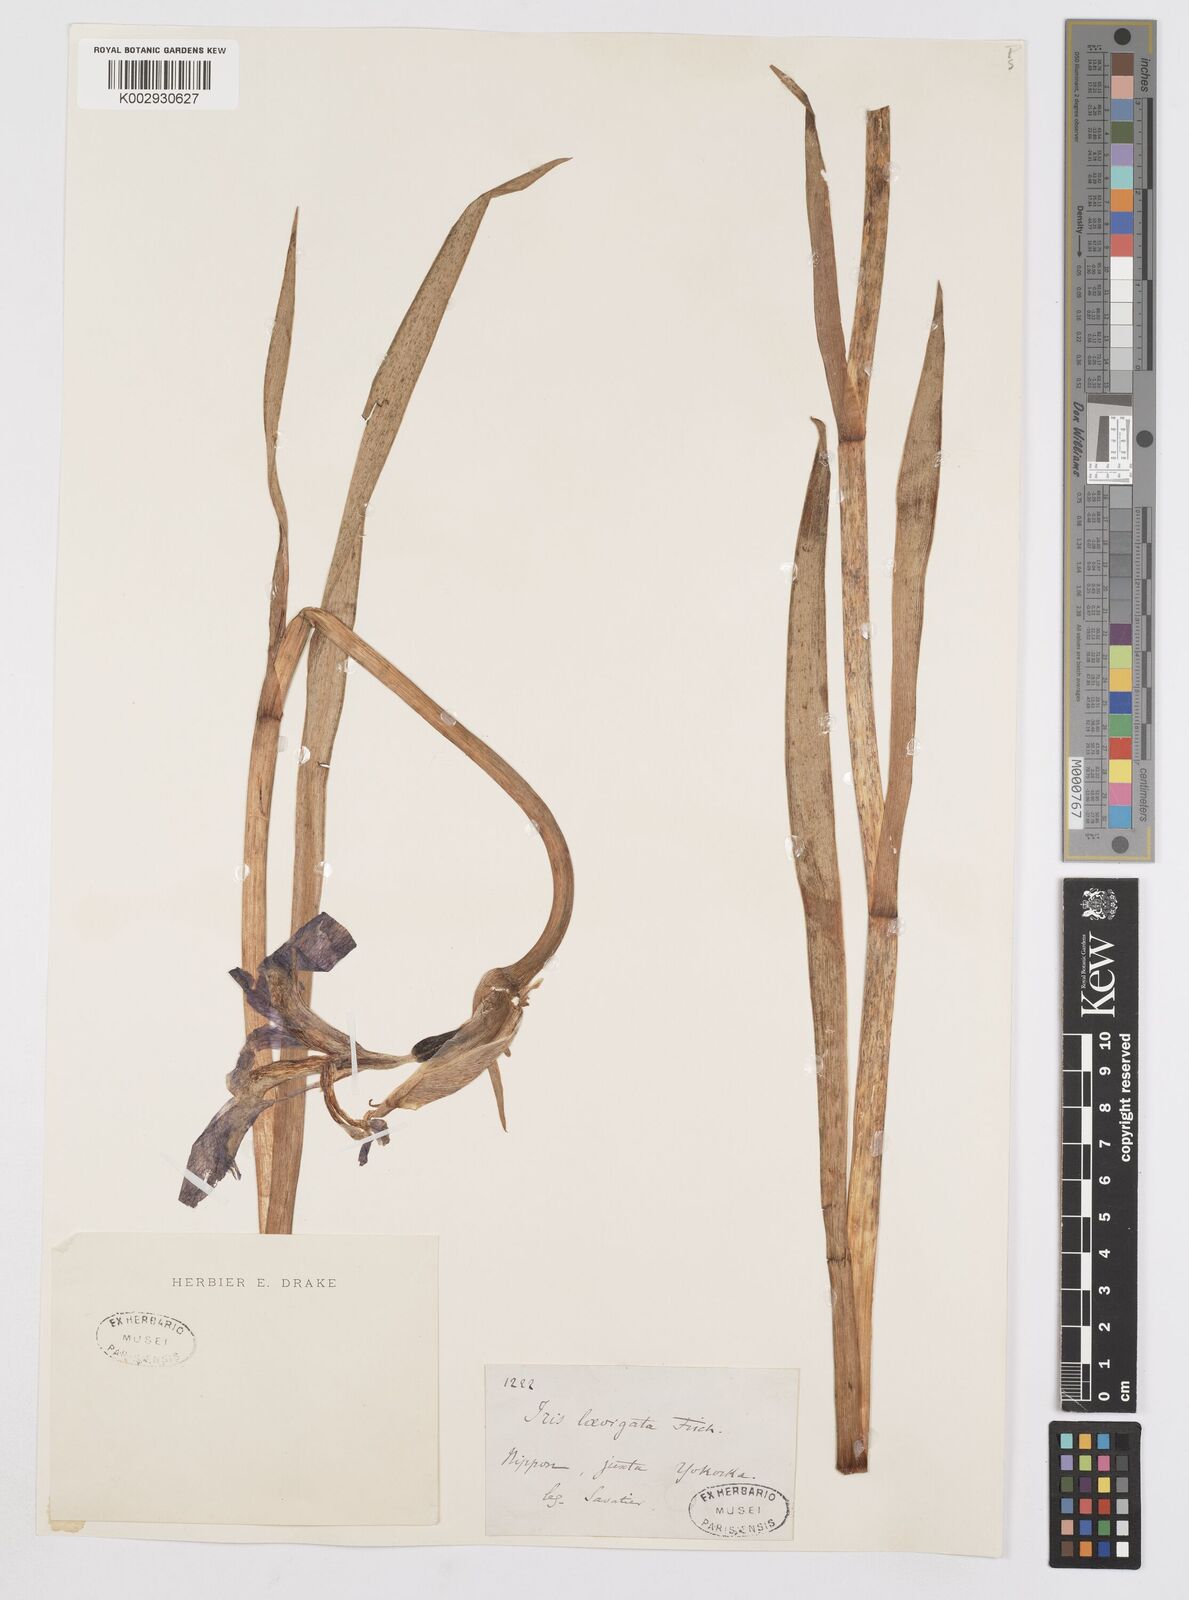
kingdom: Plantae
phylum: Tracheophyta
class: Liliopsida
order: Asparagales
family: Iridaceae
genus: Iris
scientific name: Iris laevigata
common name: Japanese iris
